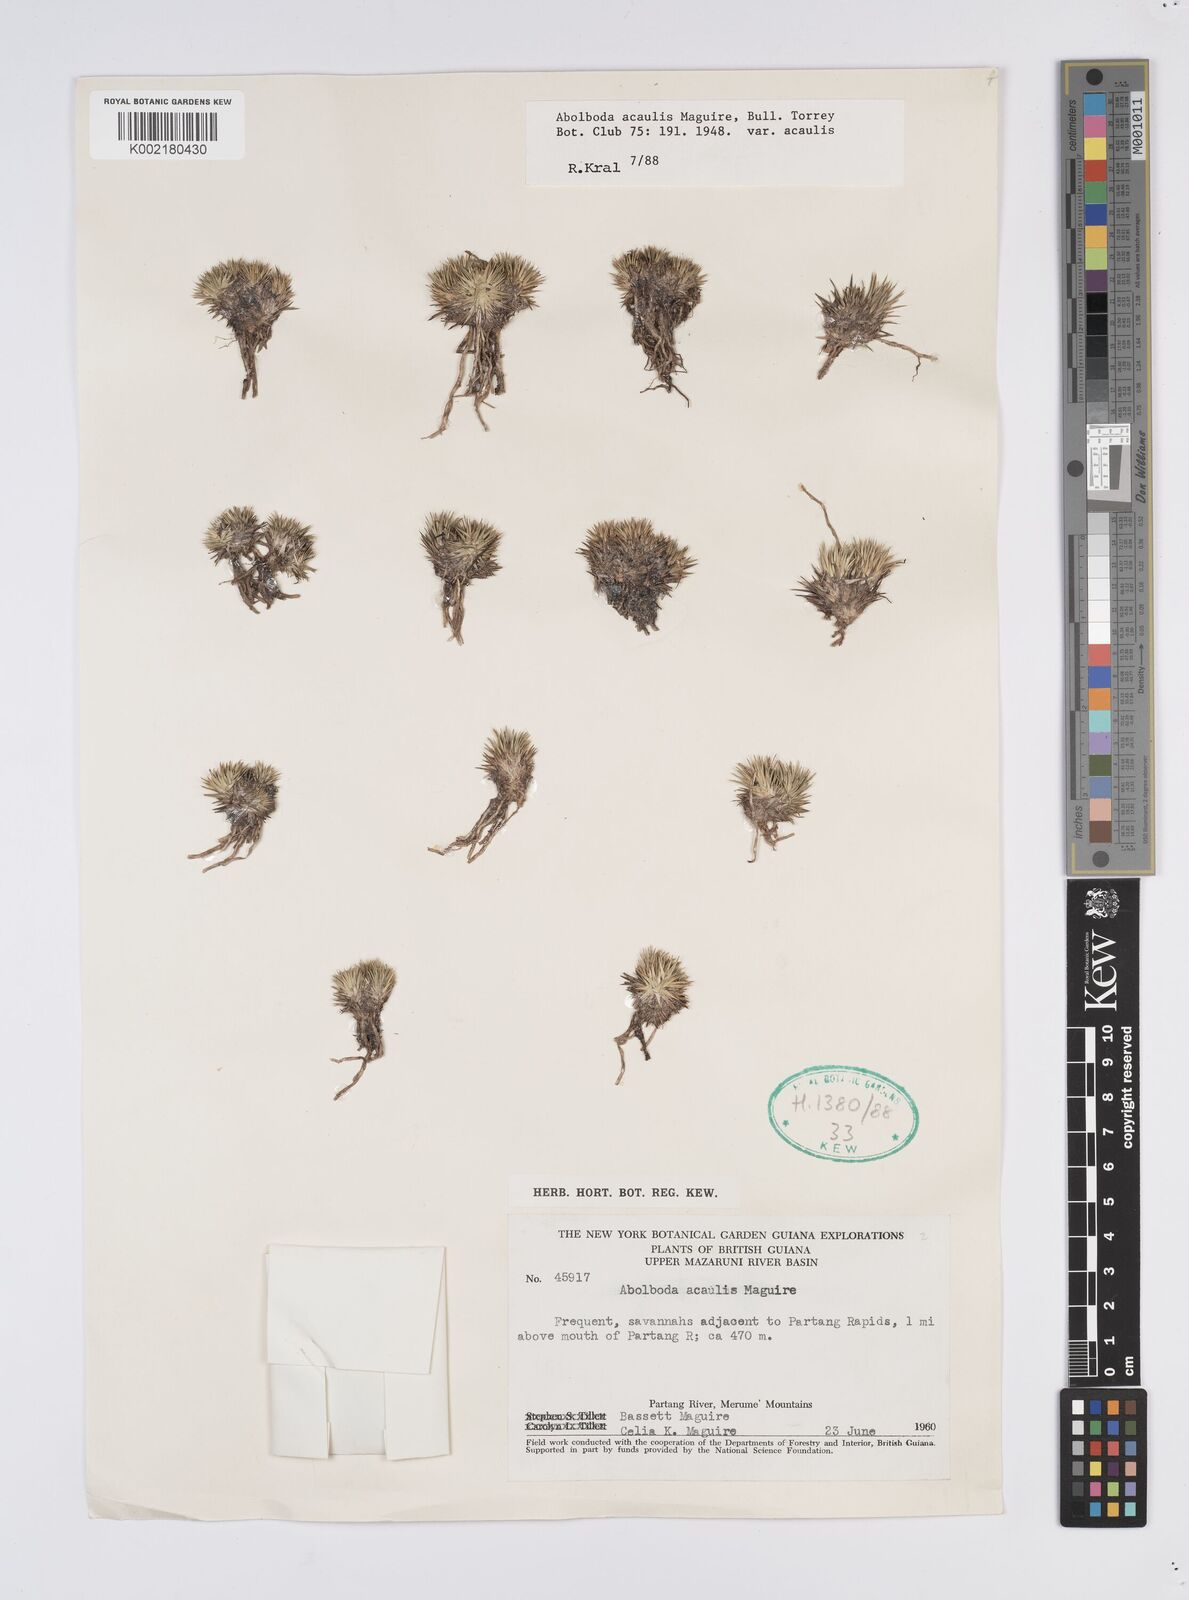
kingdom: Plantae
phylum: Tracheophyta
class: Liliopsida
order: Poales
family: Xyridaceae
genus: Abolboda
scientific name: Abolboda acaulis
